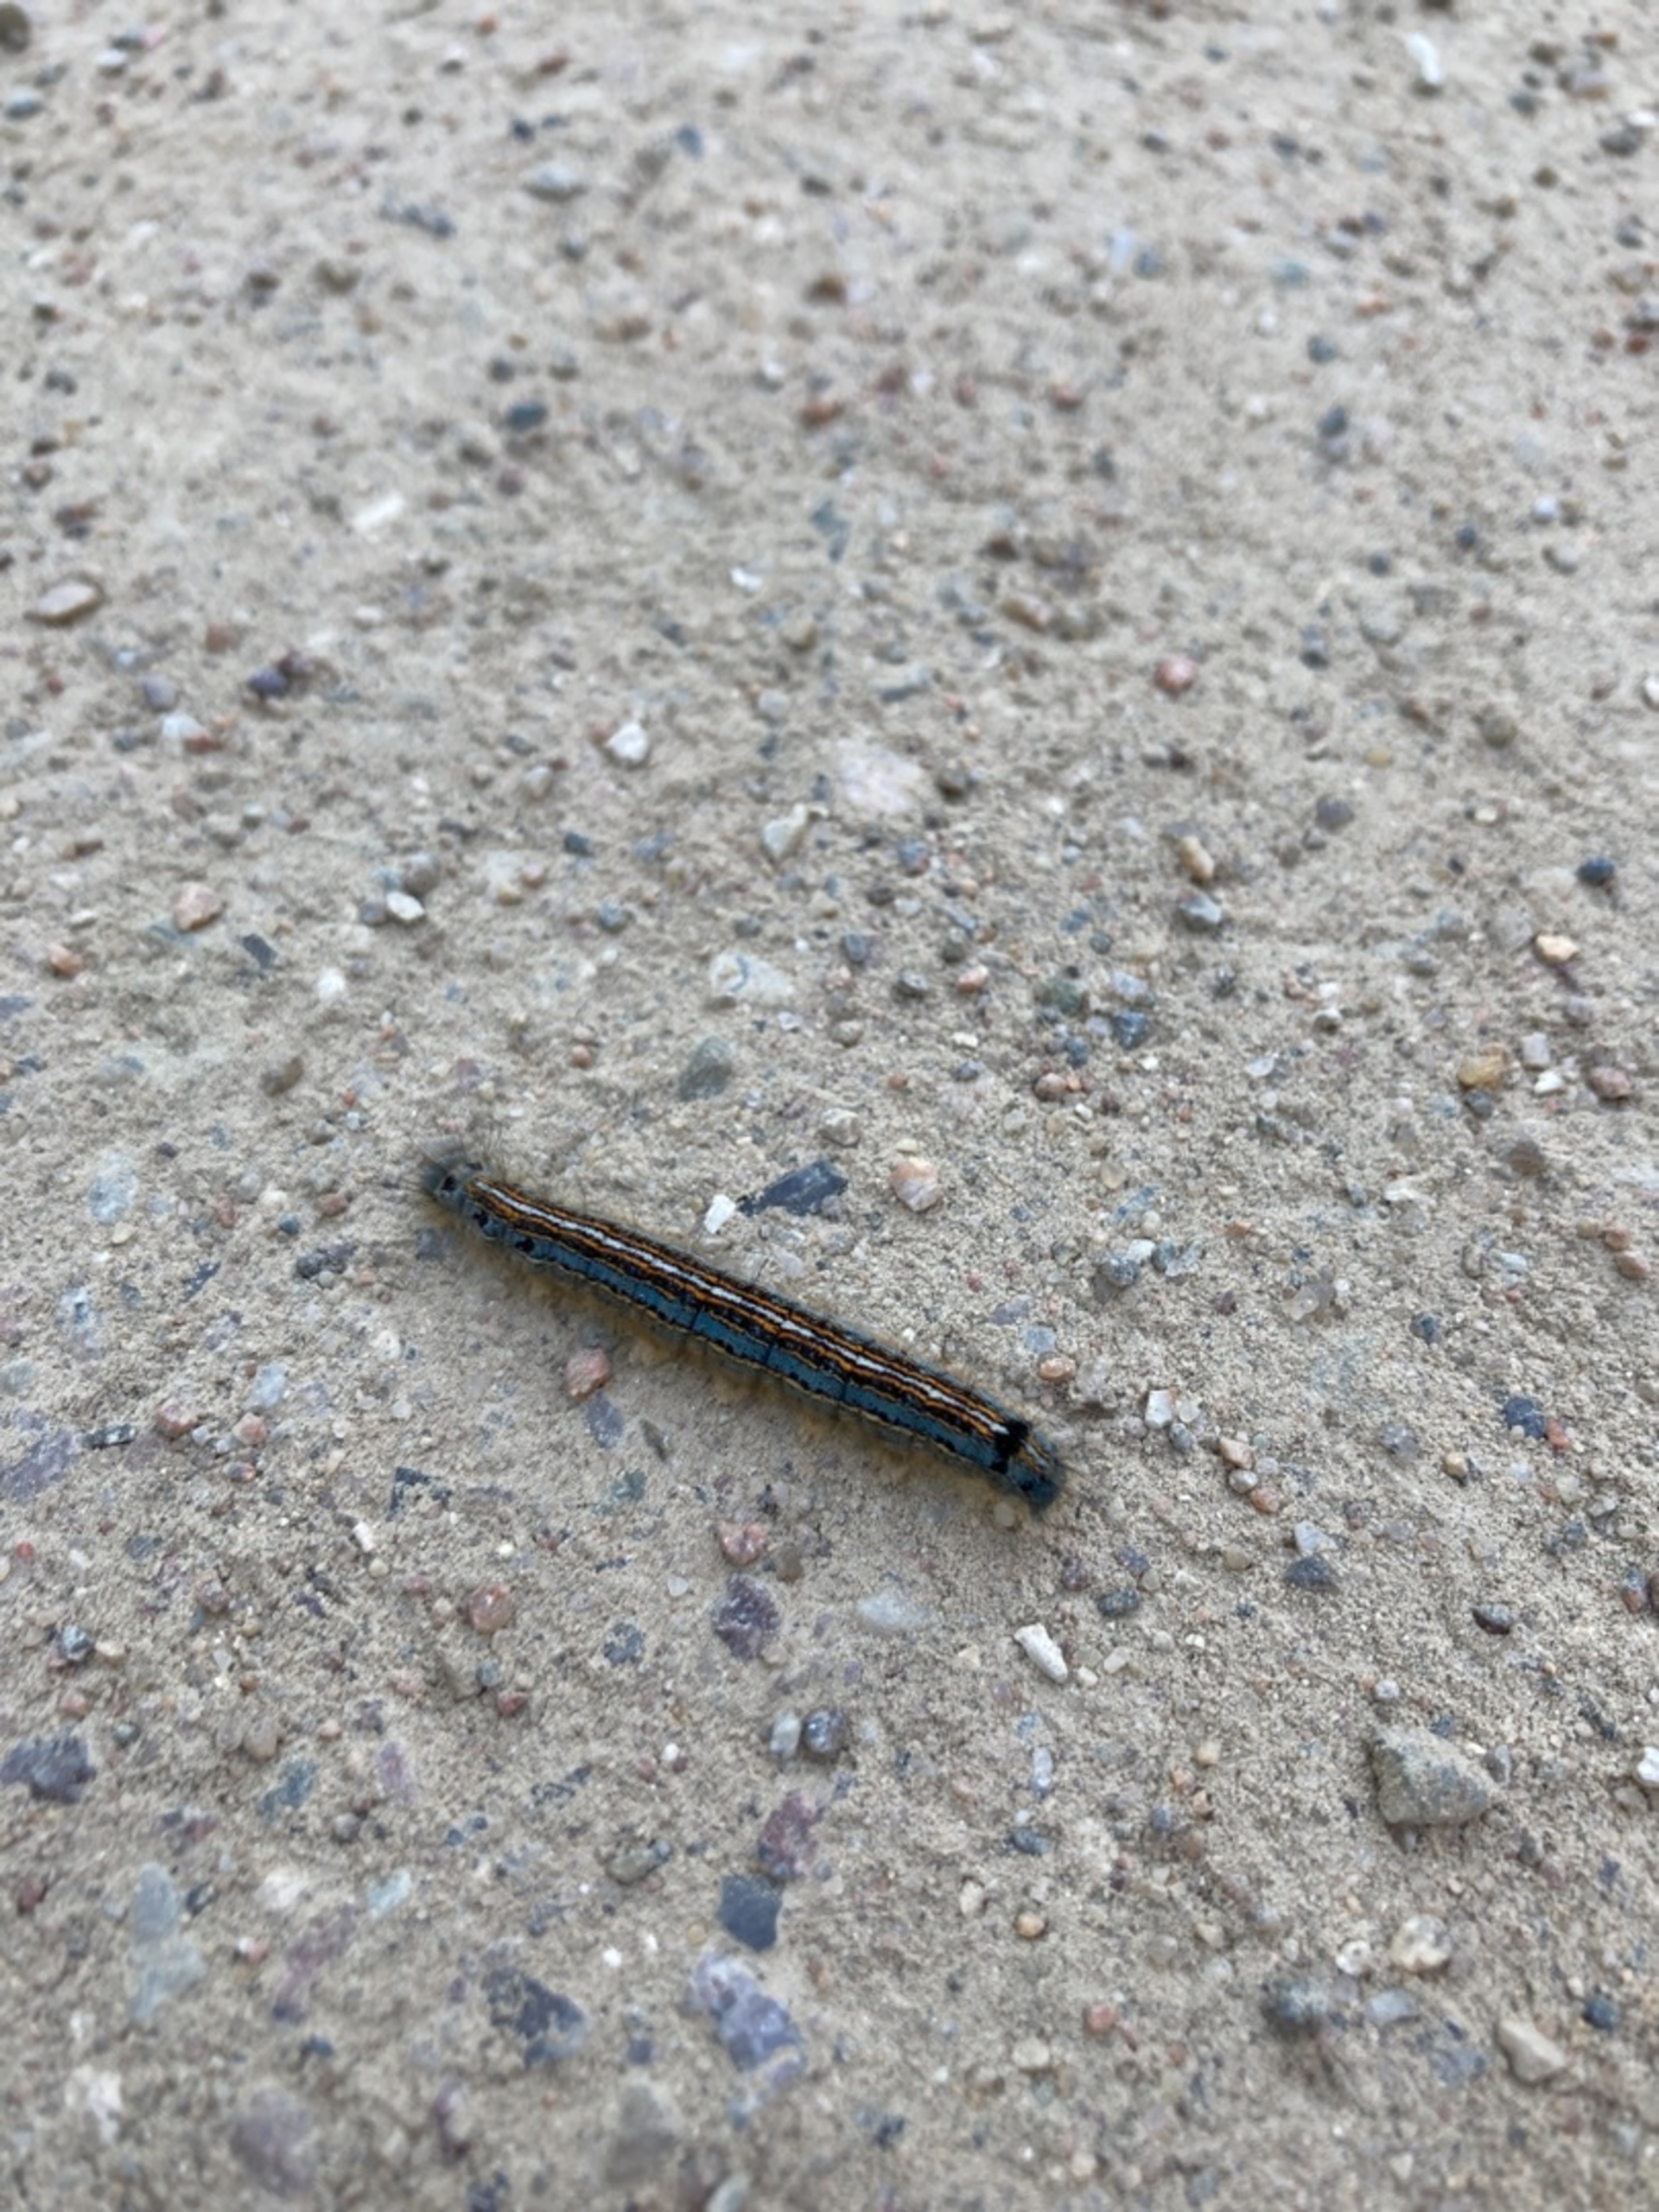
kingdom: Animalia
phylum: Arthropoda
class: Insecta
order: Lepidoptera
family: Lasiocampidae
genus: Malacosoma
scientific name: Malacosoma neustria
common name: Ringspinder
